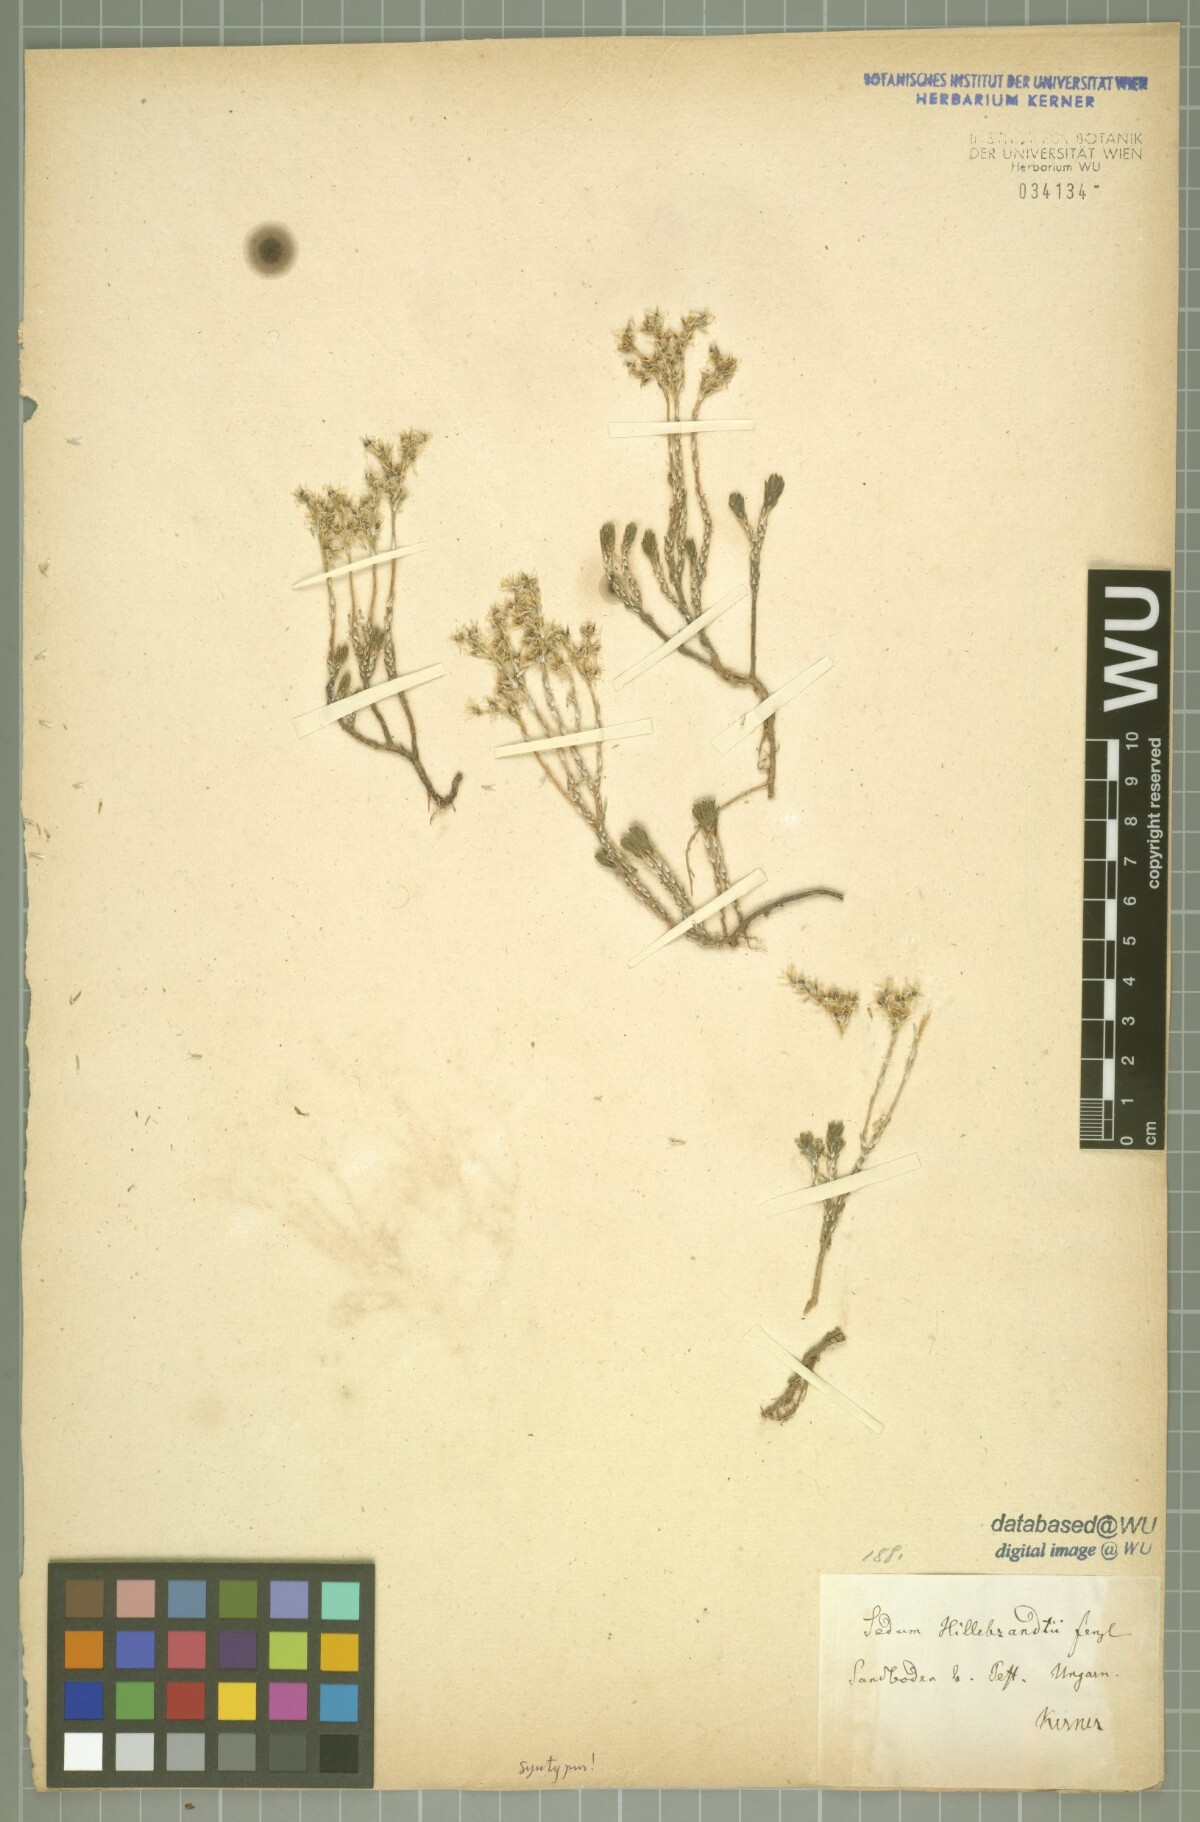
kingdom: Plantae
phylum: Tracheophyta
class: Magnoliopsida
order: Saxifragales
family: Crassulaceae
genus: Sedum
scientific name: Sedum urvillei
